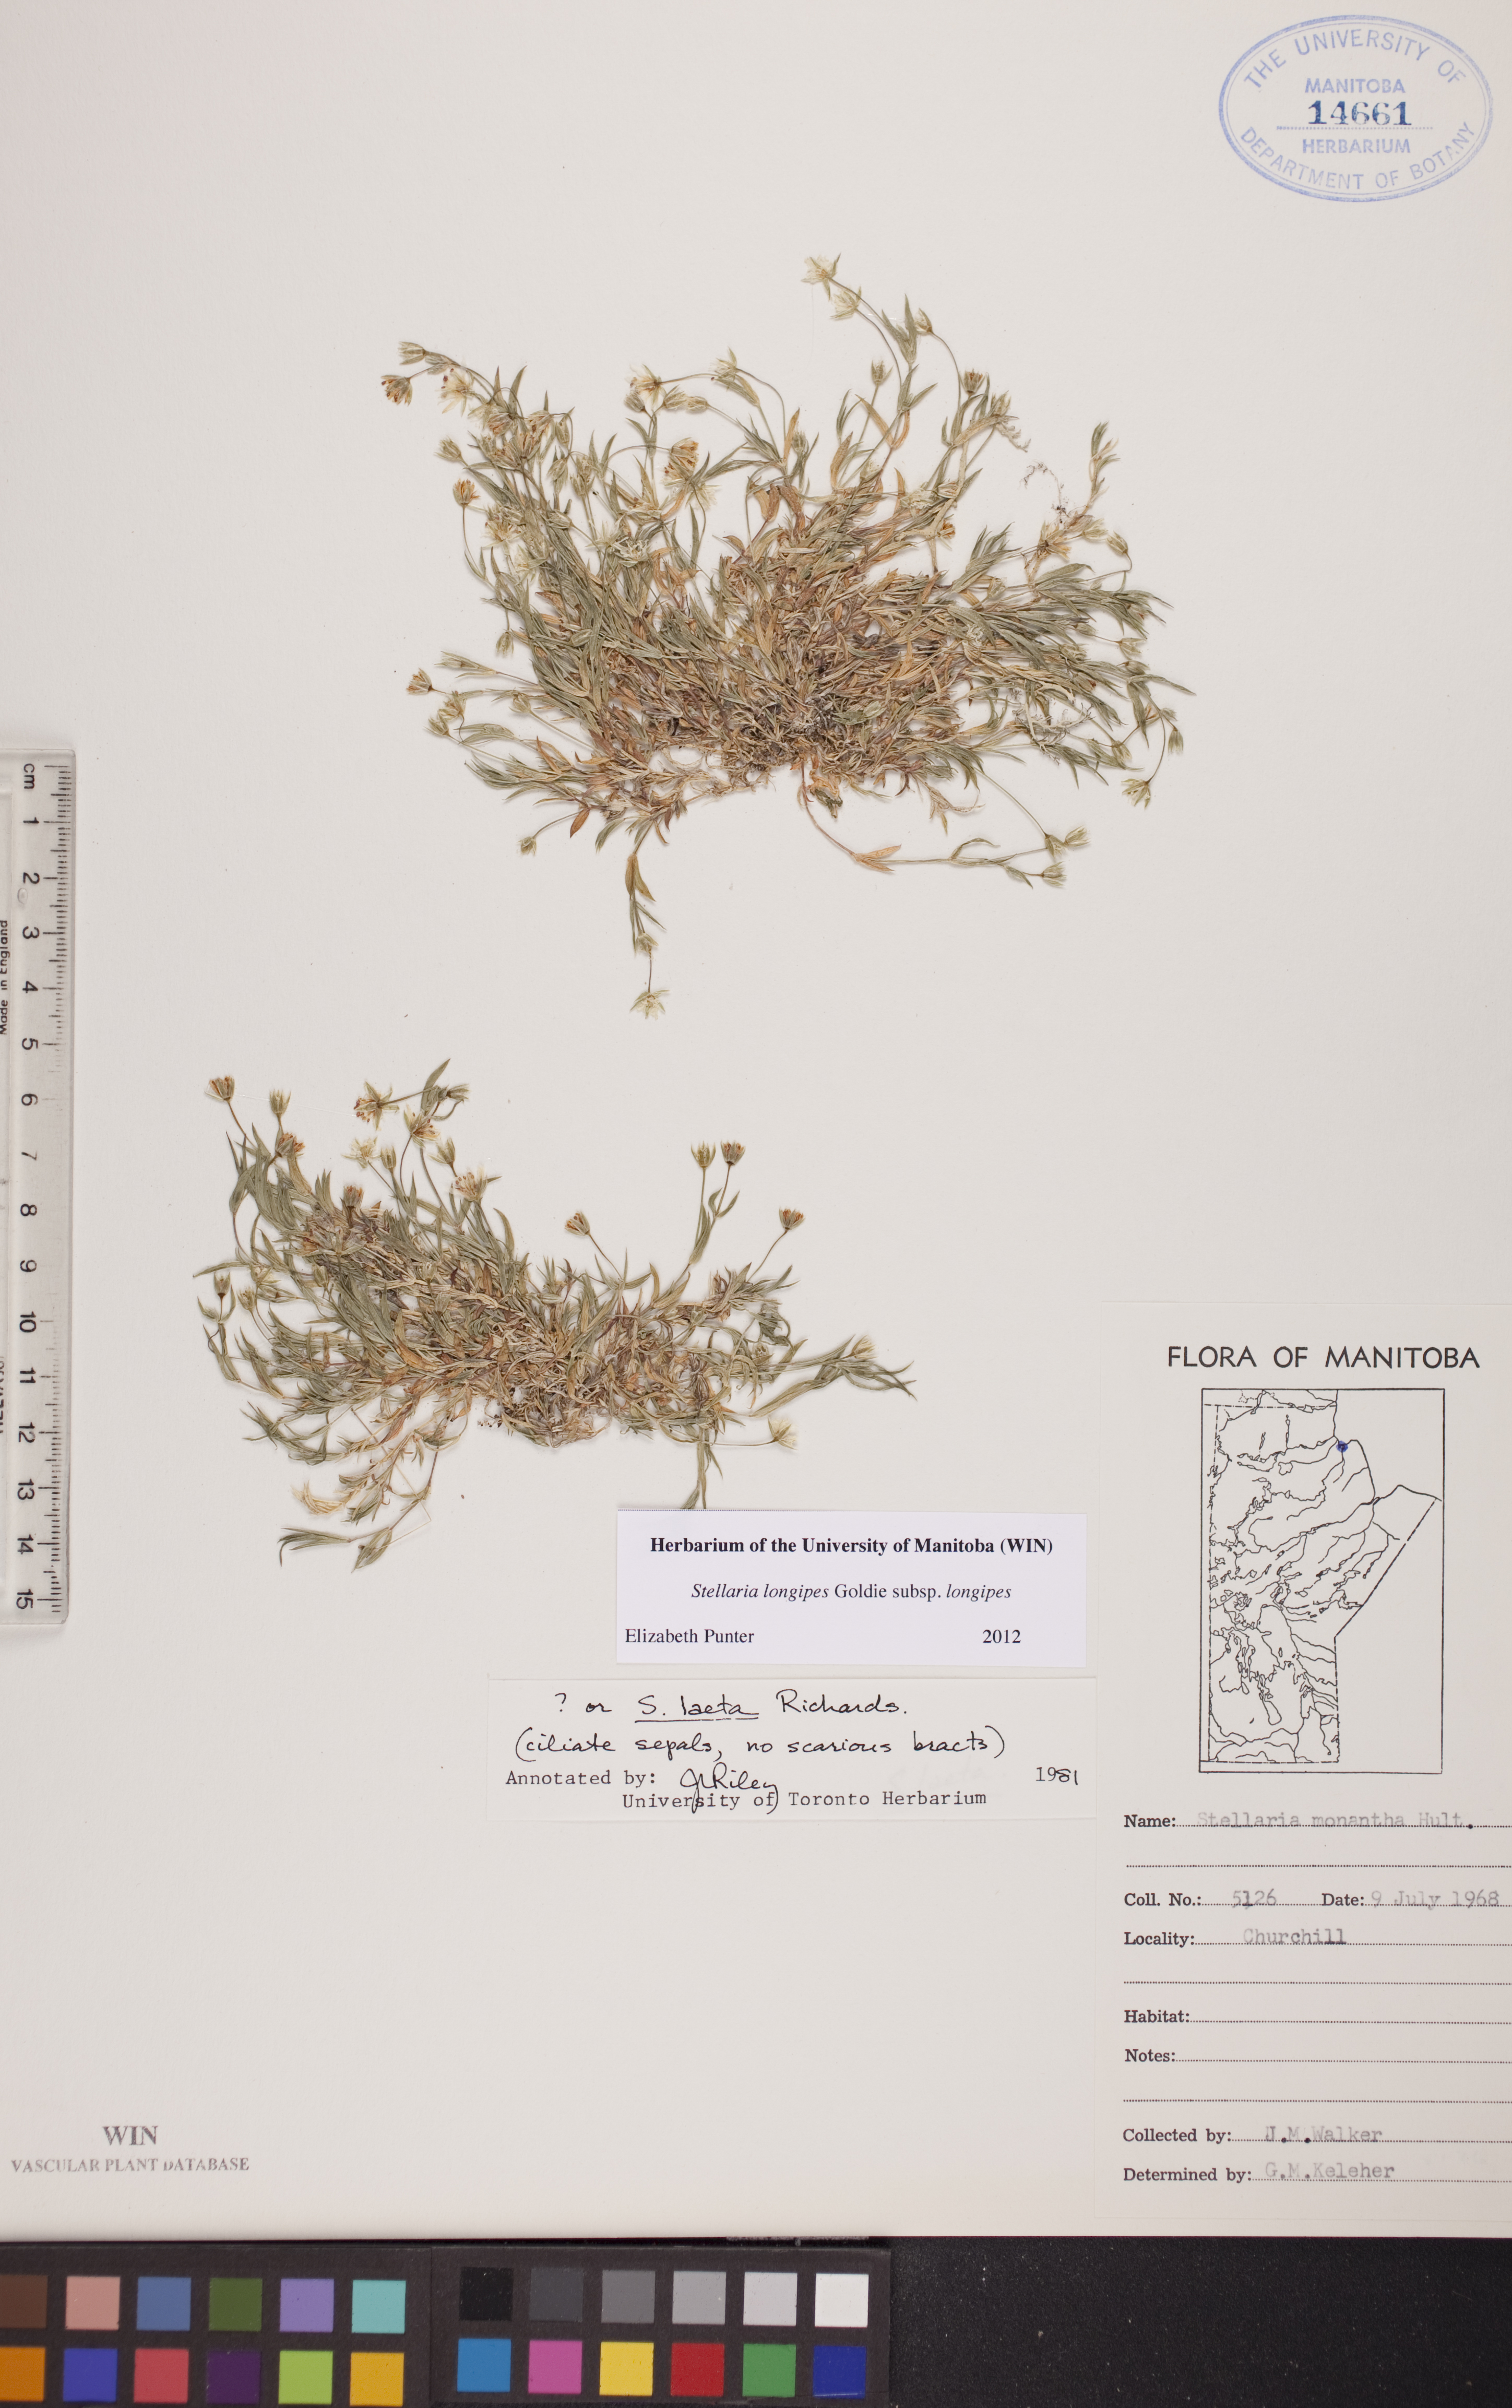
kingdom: Plantae
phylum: Tracheophyta
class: Magnoliopsida
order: Caryophyllales
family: Caryophyllaceae
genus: Stellaria
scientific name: Stellaria longipes
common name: Goldie's starwort
